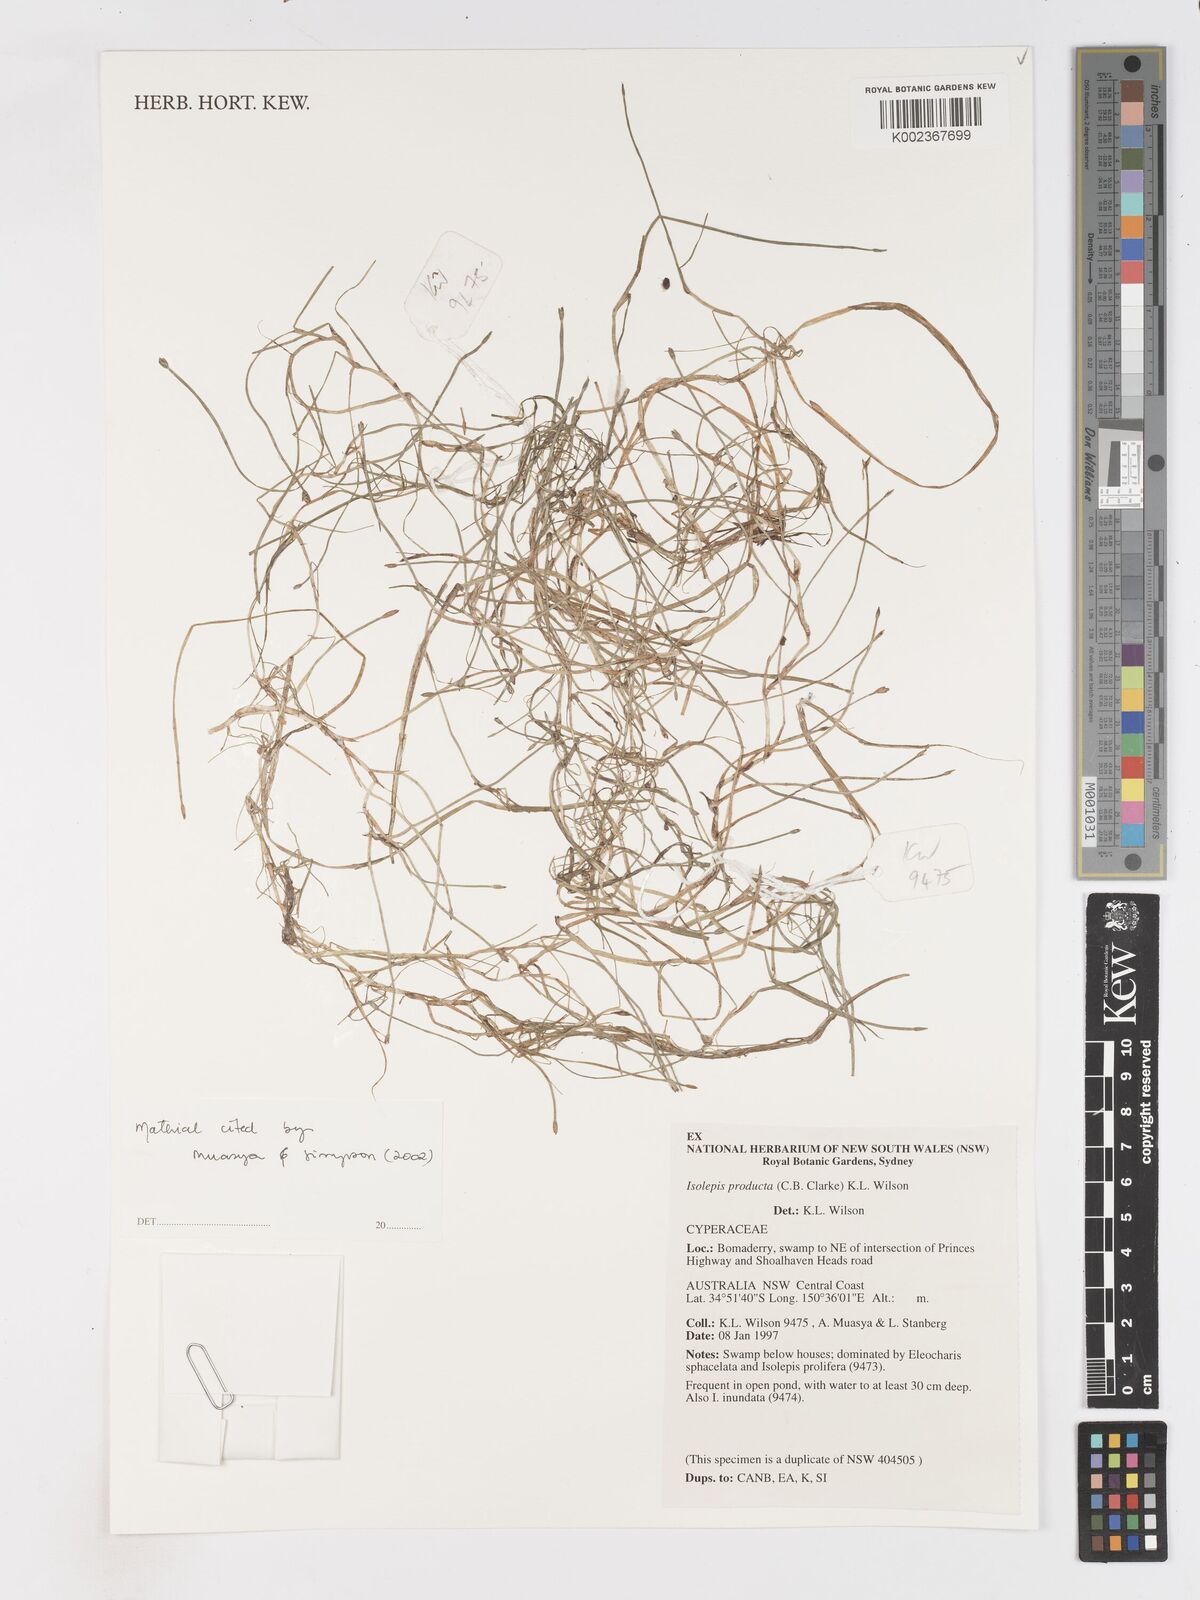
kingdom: Plantae
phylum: Tracheophyta
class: Liliopsida
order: Poales
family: Cyperaceae
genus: Isolepis
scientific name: Isolepis producta
